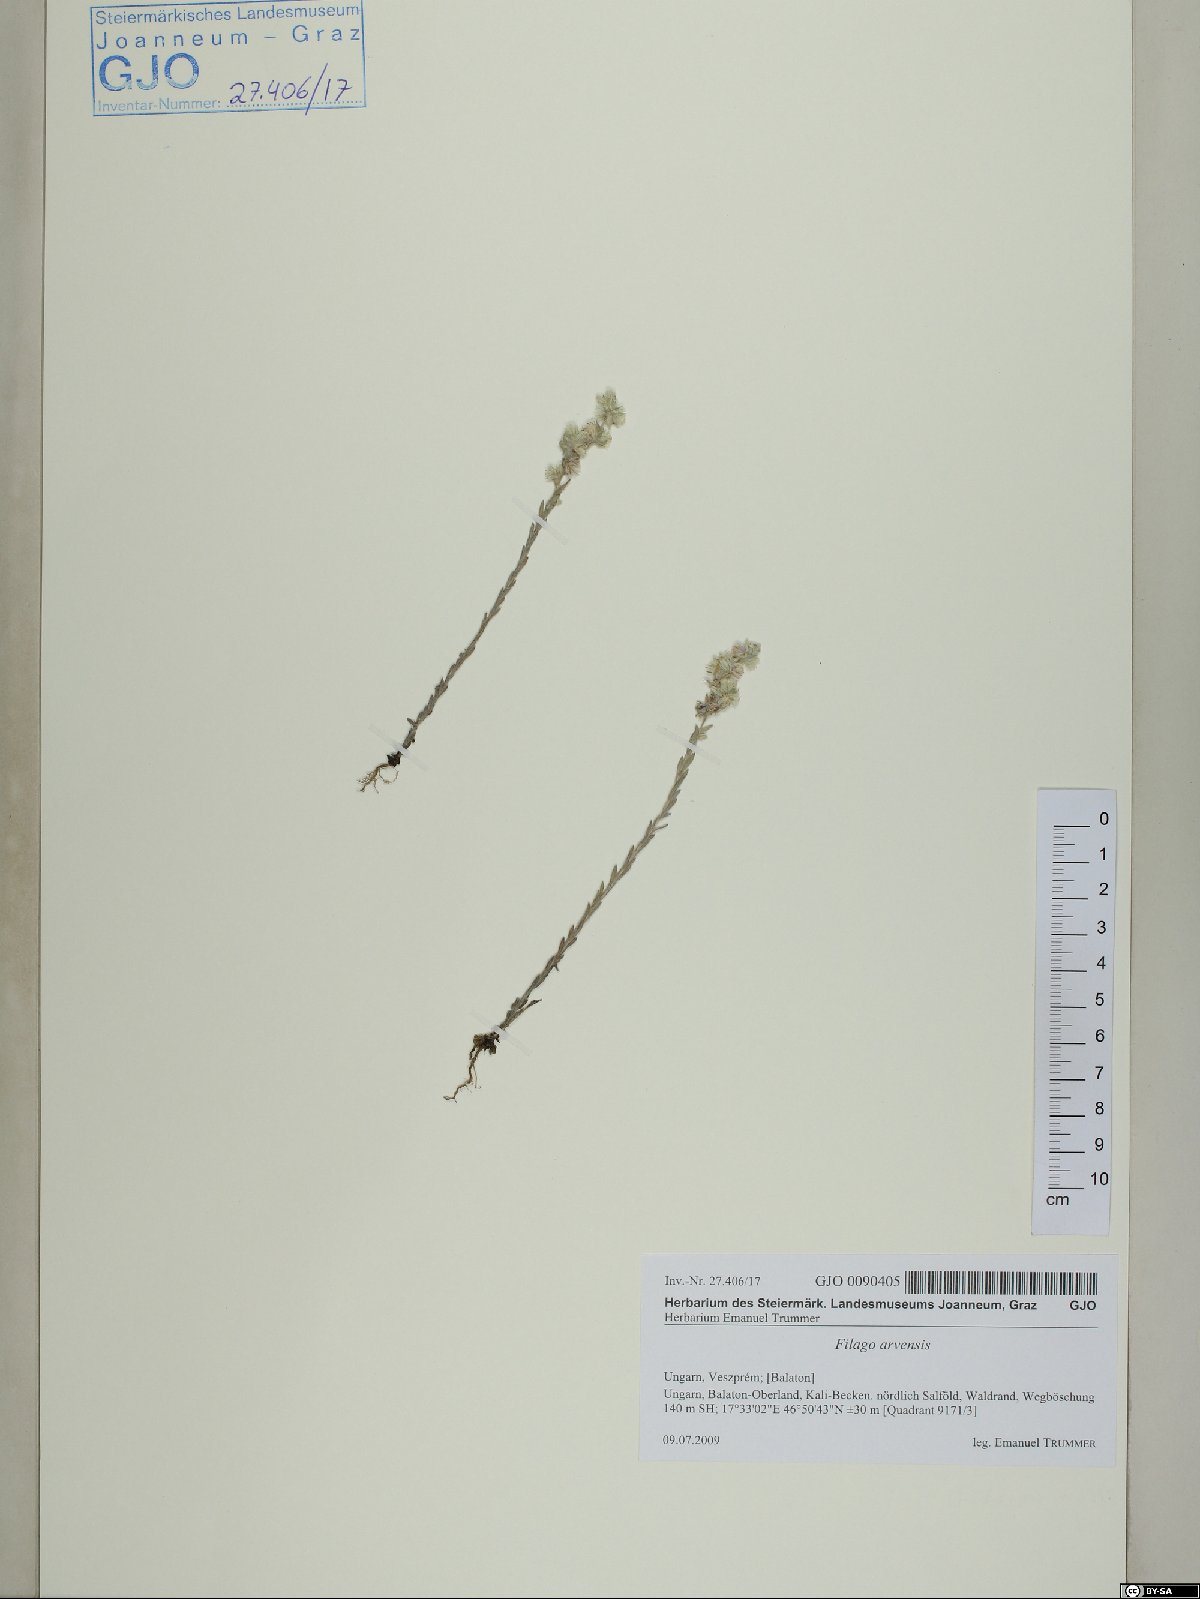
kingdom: Plantae
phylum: Tracheophyta
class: Magnoliopsida
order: Asterales
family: Asteraceae
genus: Filago
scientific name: Filago arvensis
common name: Field cudweed
